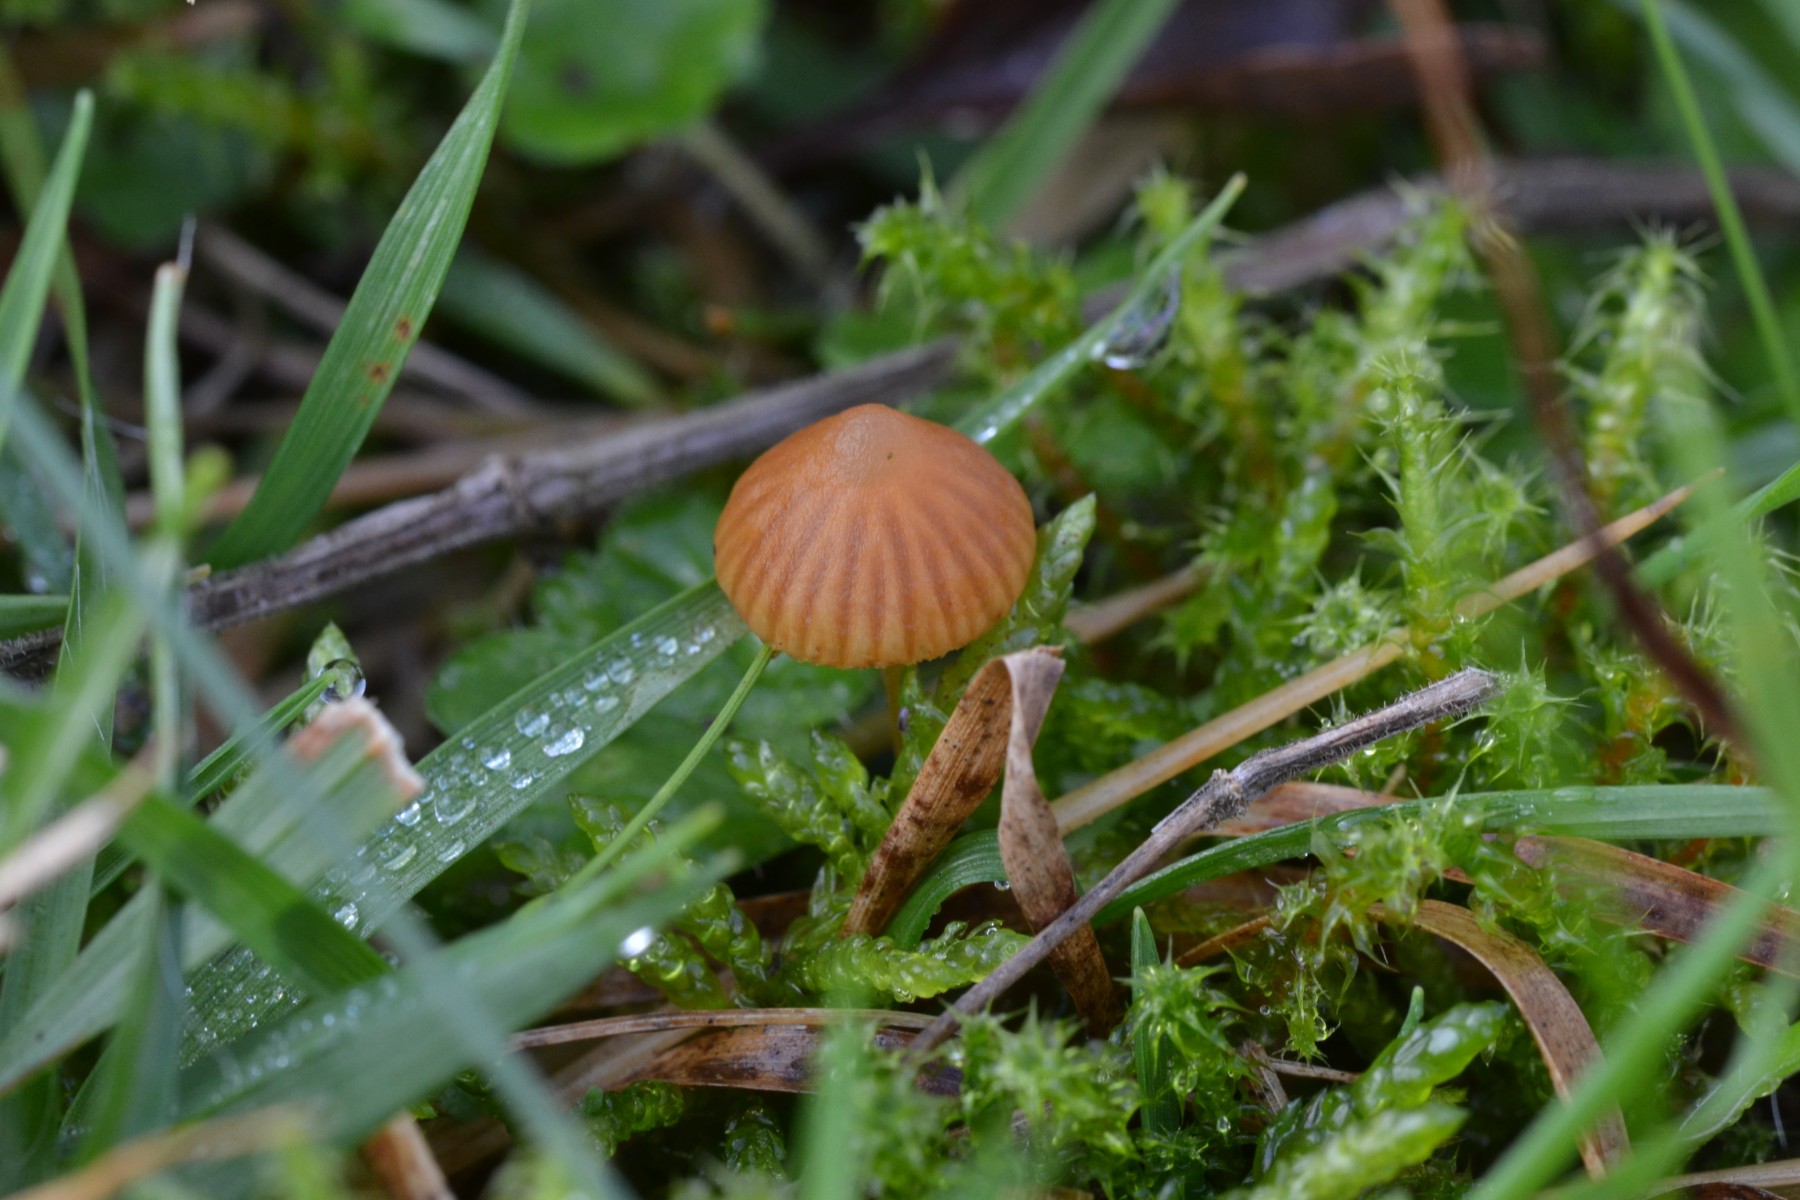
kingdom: Fungi
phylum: Basidiomycota
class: Agaricomycetes
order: Agaricales
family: Hymenogastraceae
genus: Galerina
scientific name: Galerina
